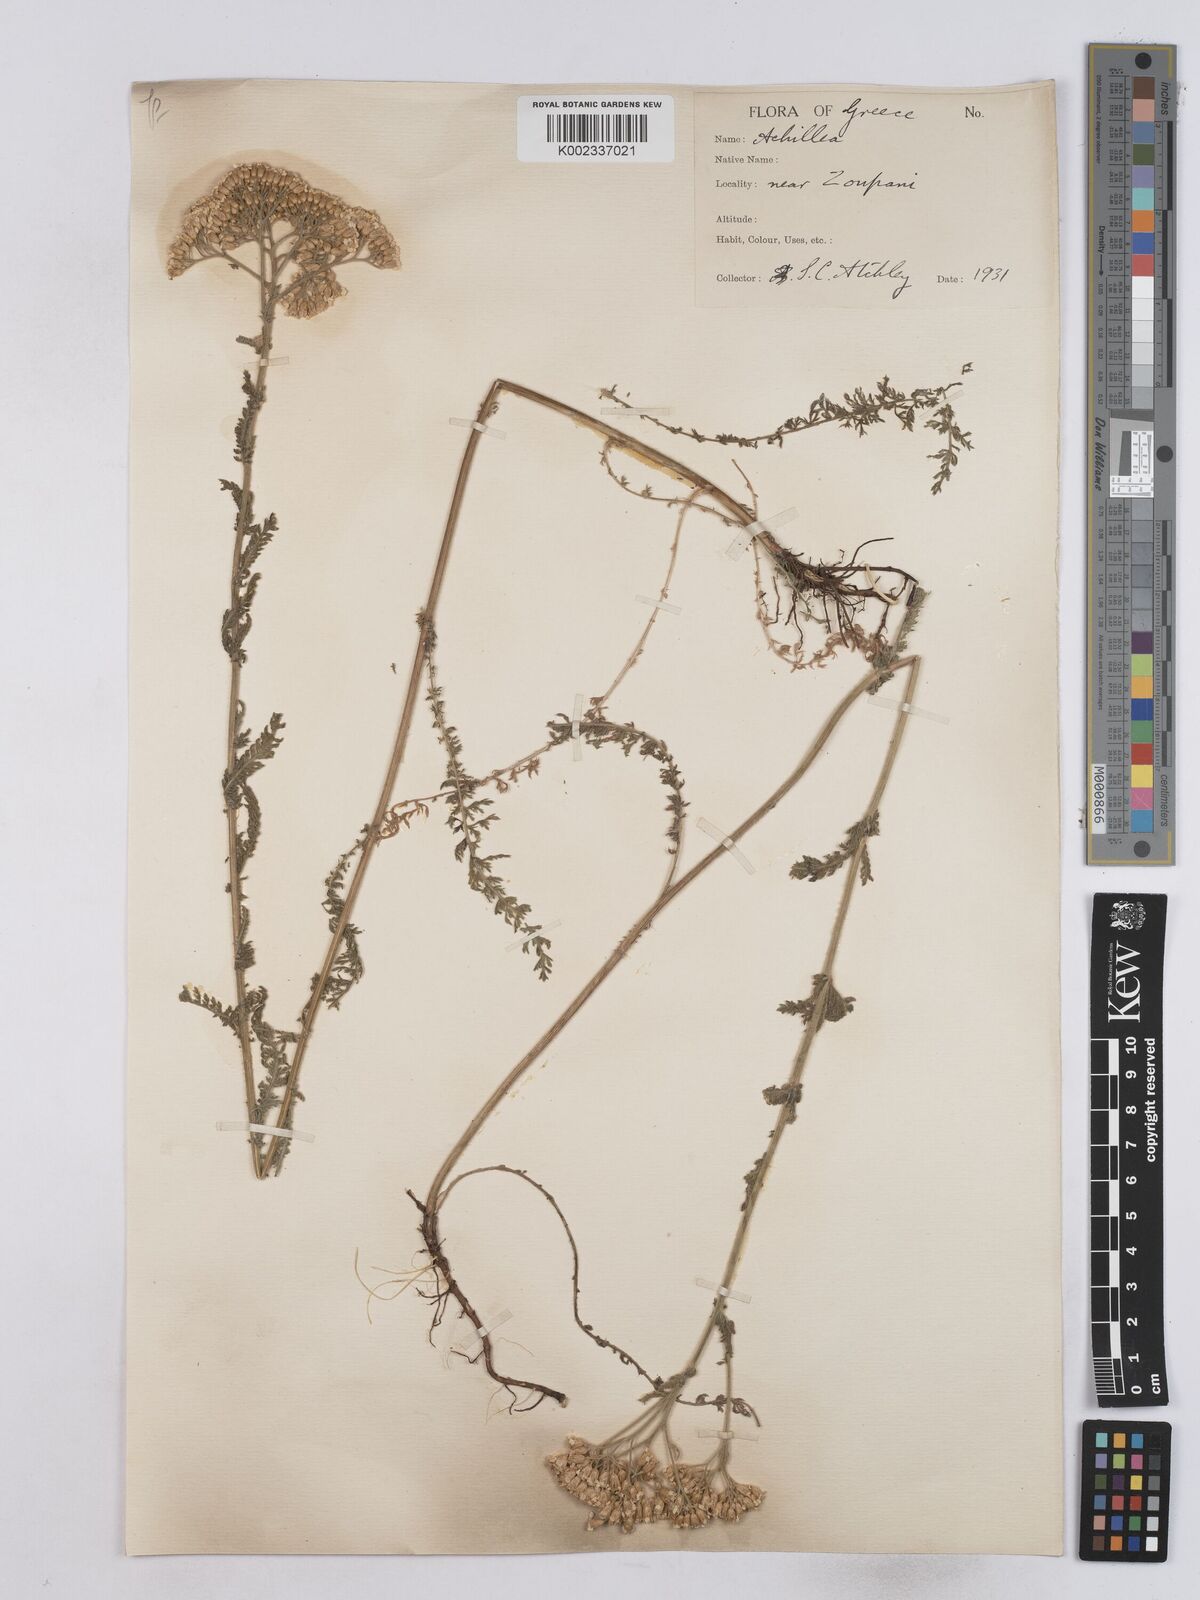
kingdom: Plantae
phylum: Tracheophyta
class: Magnoliopsida
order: Asterales
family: Asteraceae
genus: Achillea
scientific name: Achillea nobilis
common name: Noble yarrow
